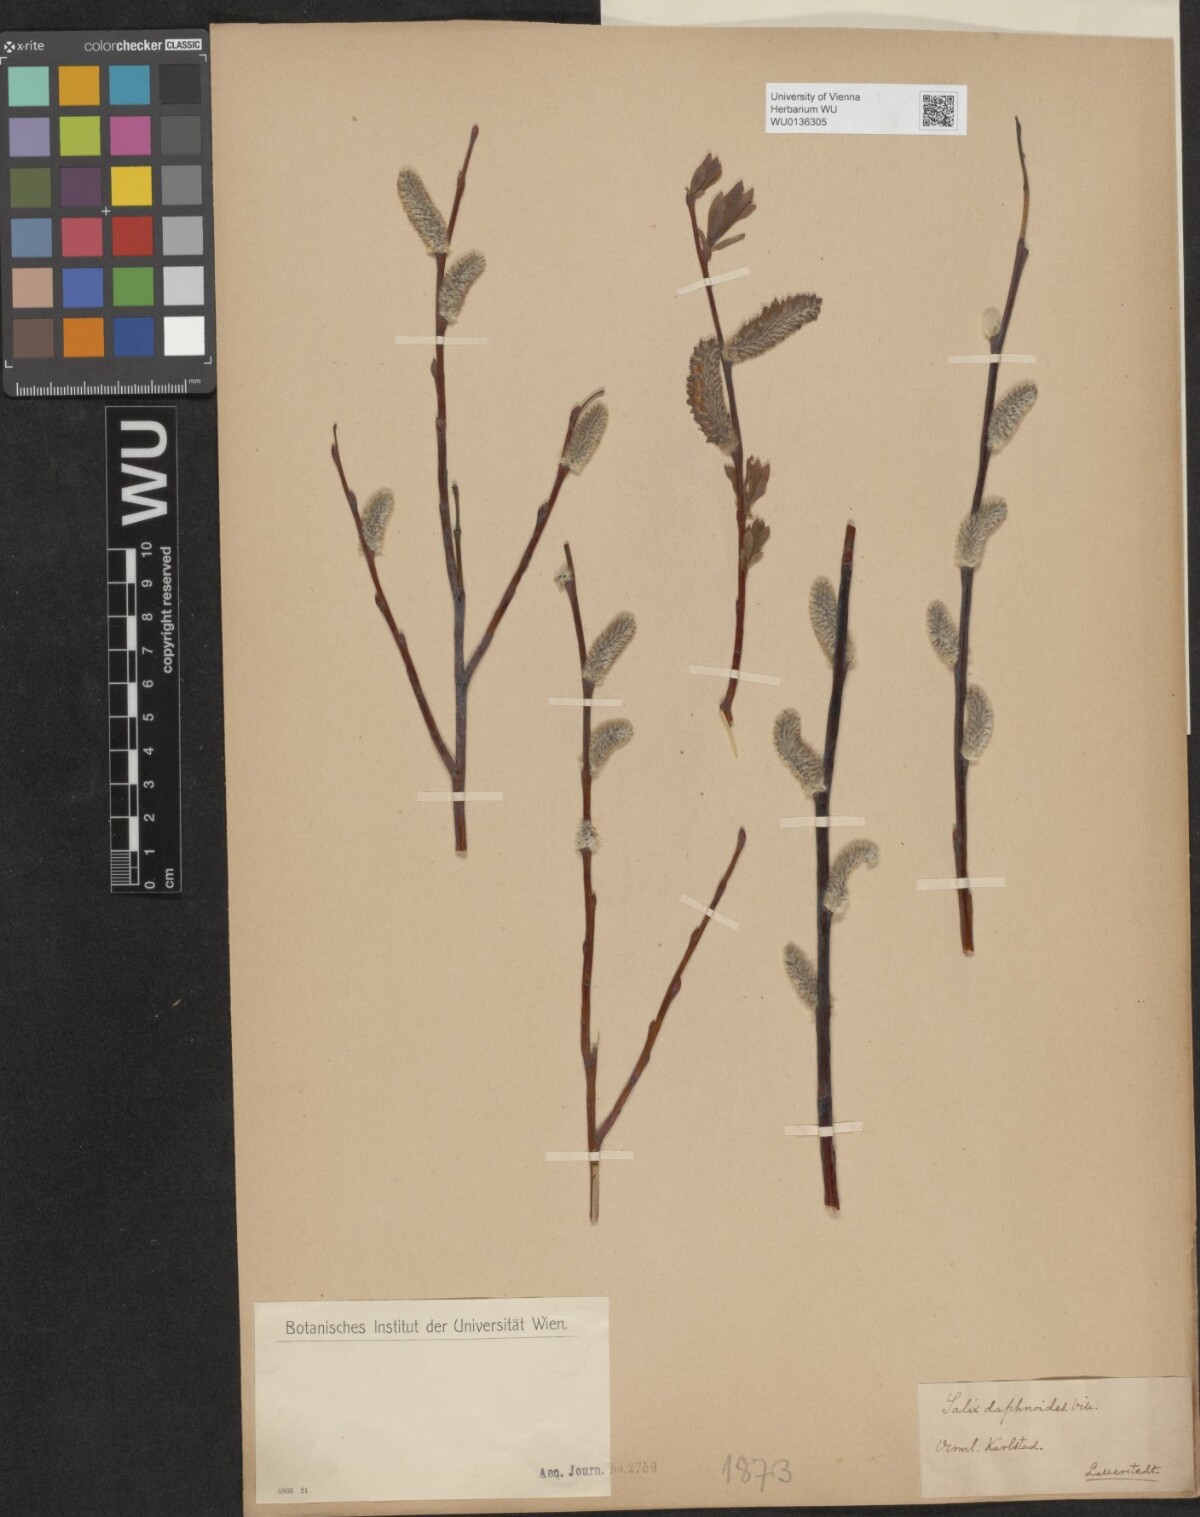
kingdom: Plantae
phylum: Tracheophyta
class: Magnoliopsida
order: Malpighiales
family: Salicaceae
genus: Salix
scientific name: Salix daphnoides
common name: European violet-willow
